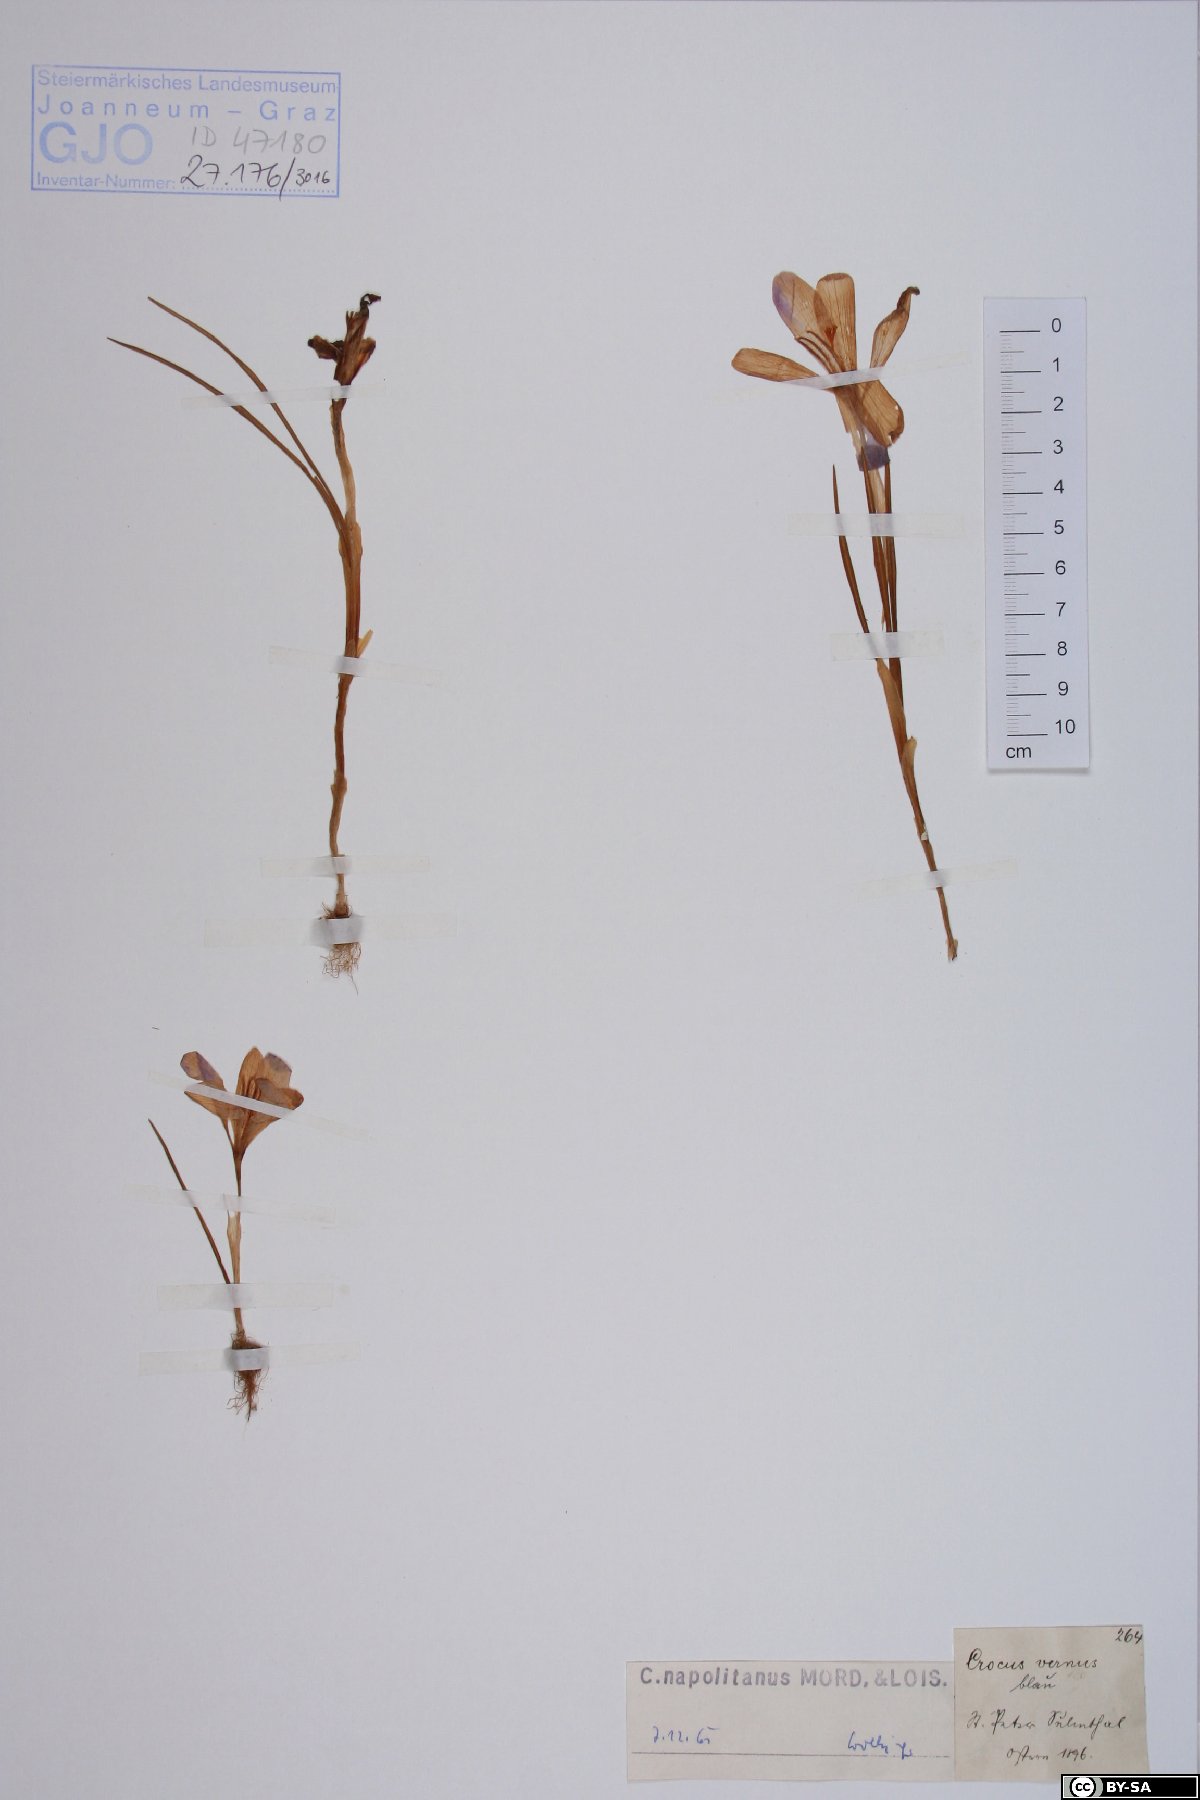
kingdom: Plantae
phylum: Tracheophyta
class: Liliopsida
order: Asparagales
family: Iridaceae
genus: Crocus
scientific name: Crocus vernus
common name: Spring crocus
